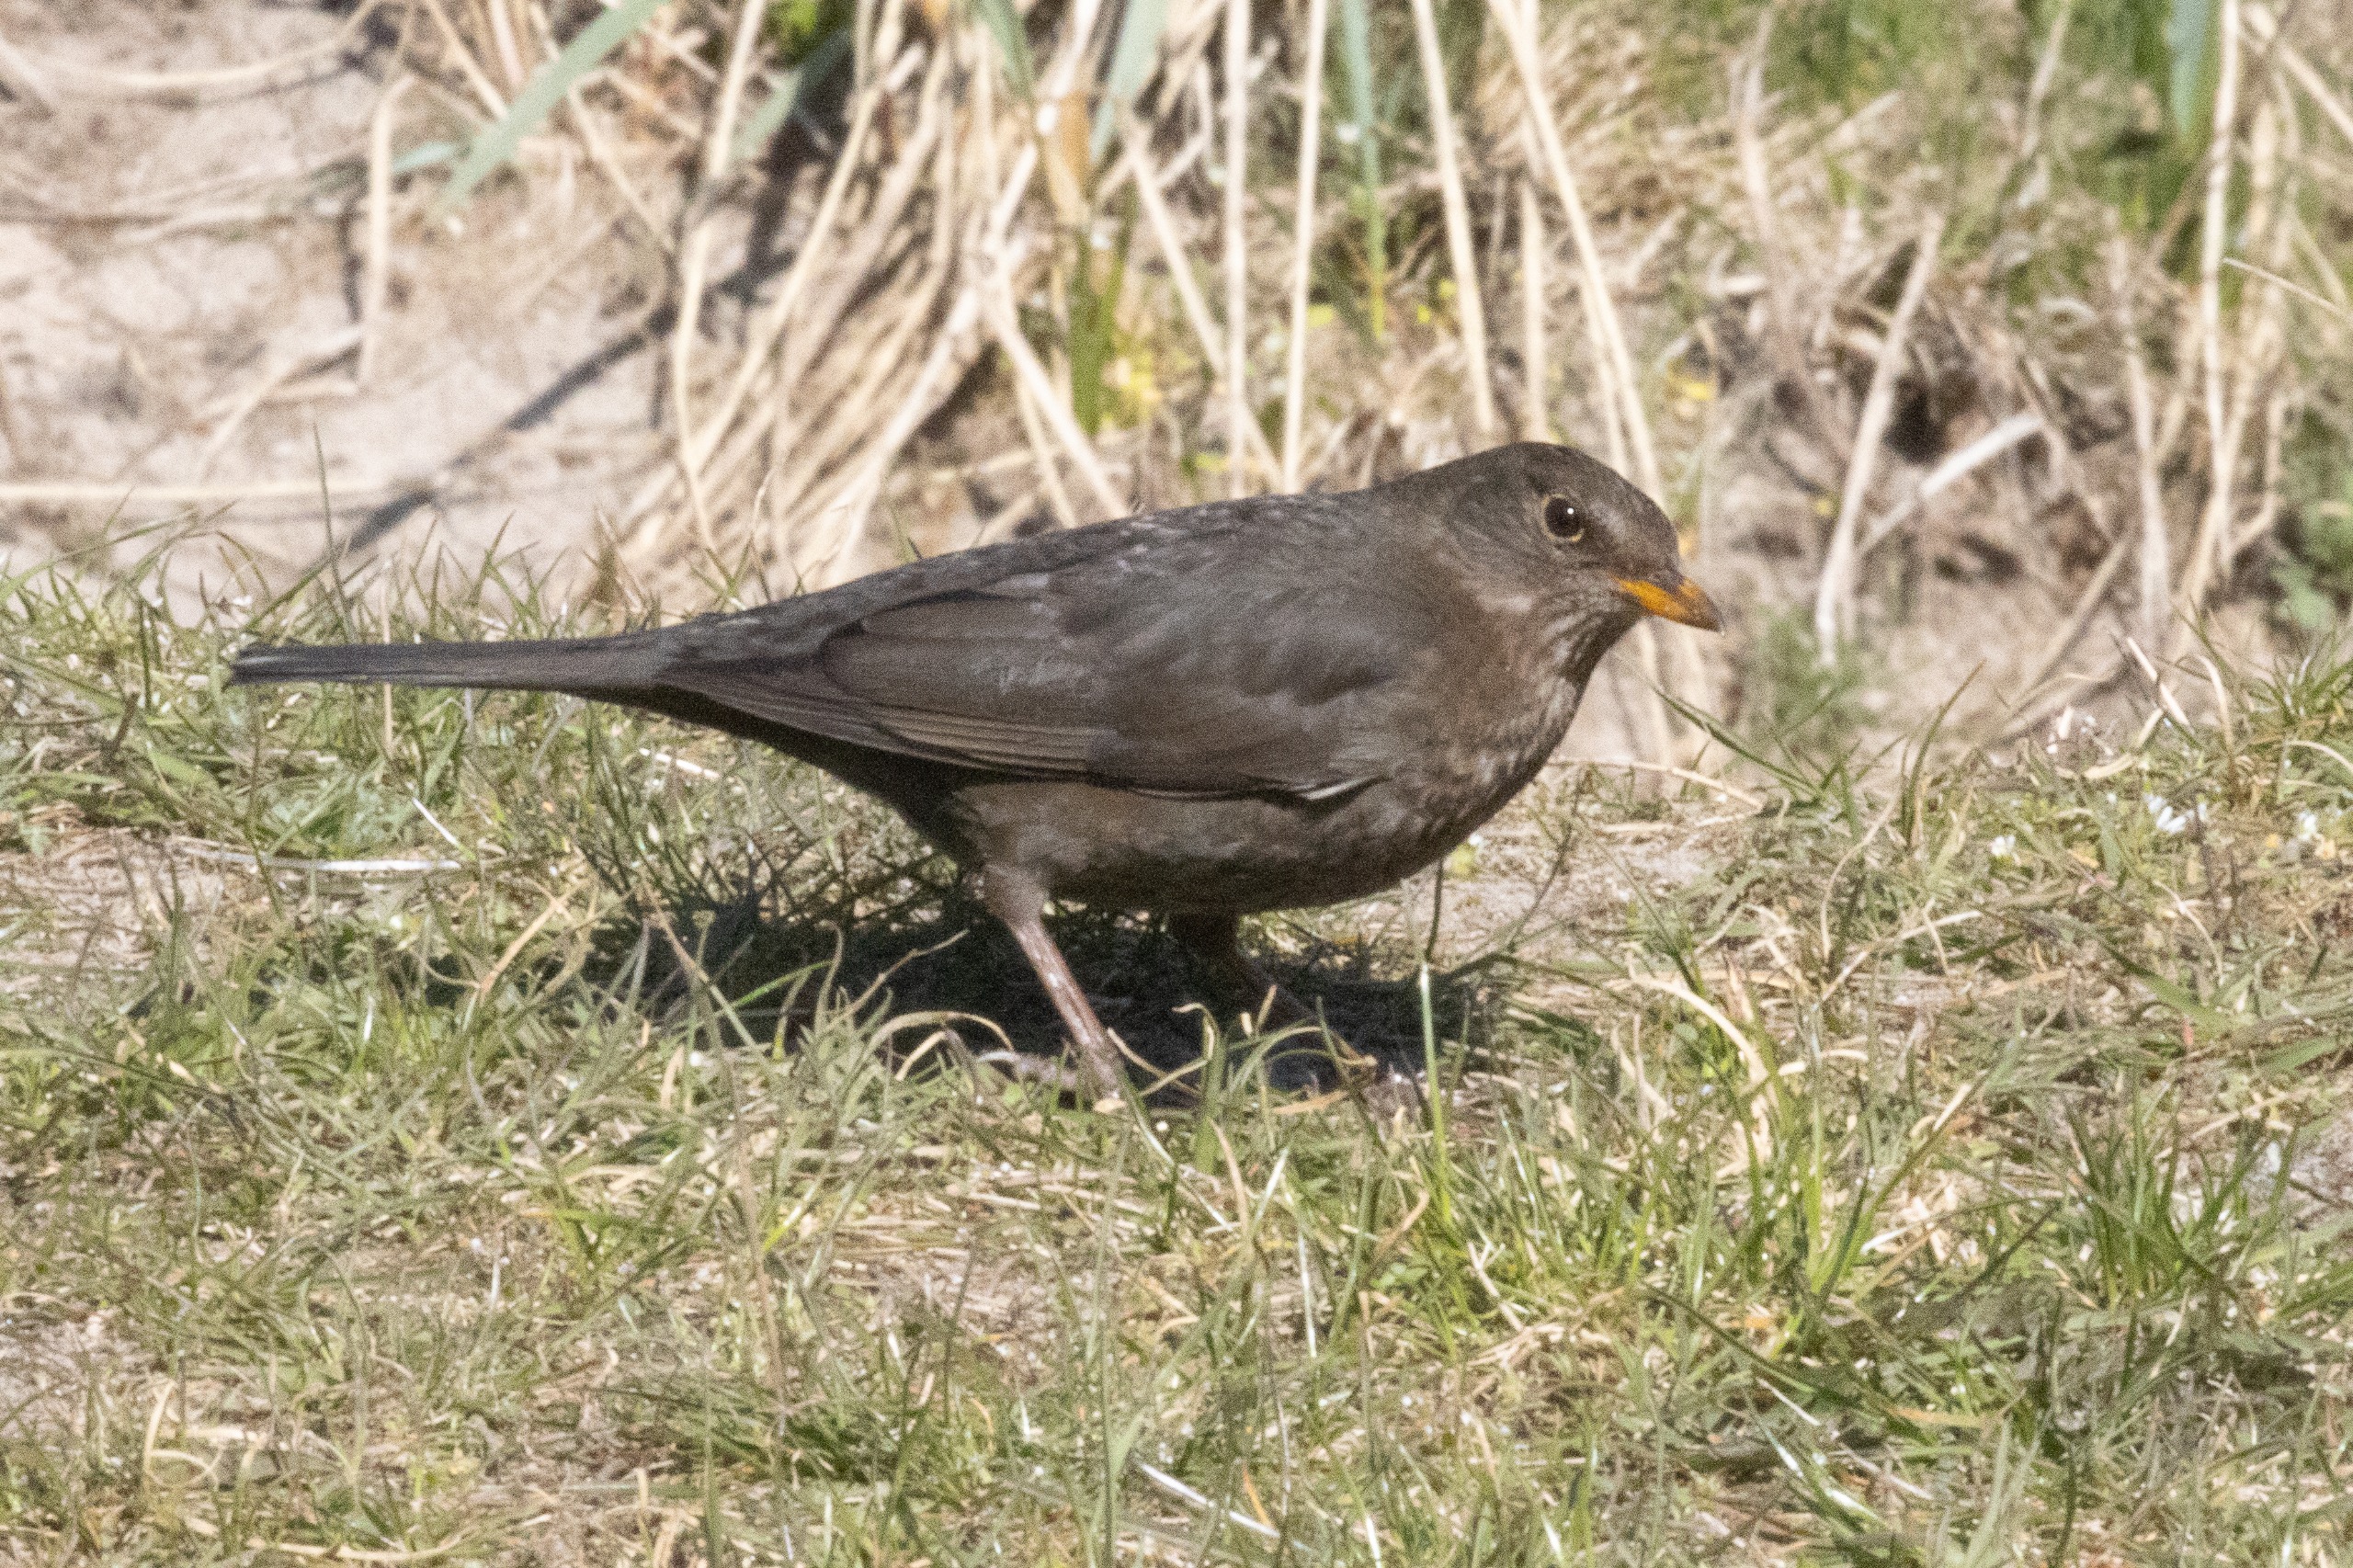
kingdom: Animalia
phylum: Chordata
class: Aves
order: Passeriformes
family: Turdidae
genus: Turdus
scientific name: Turdus merula
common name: Solsort
